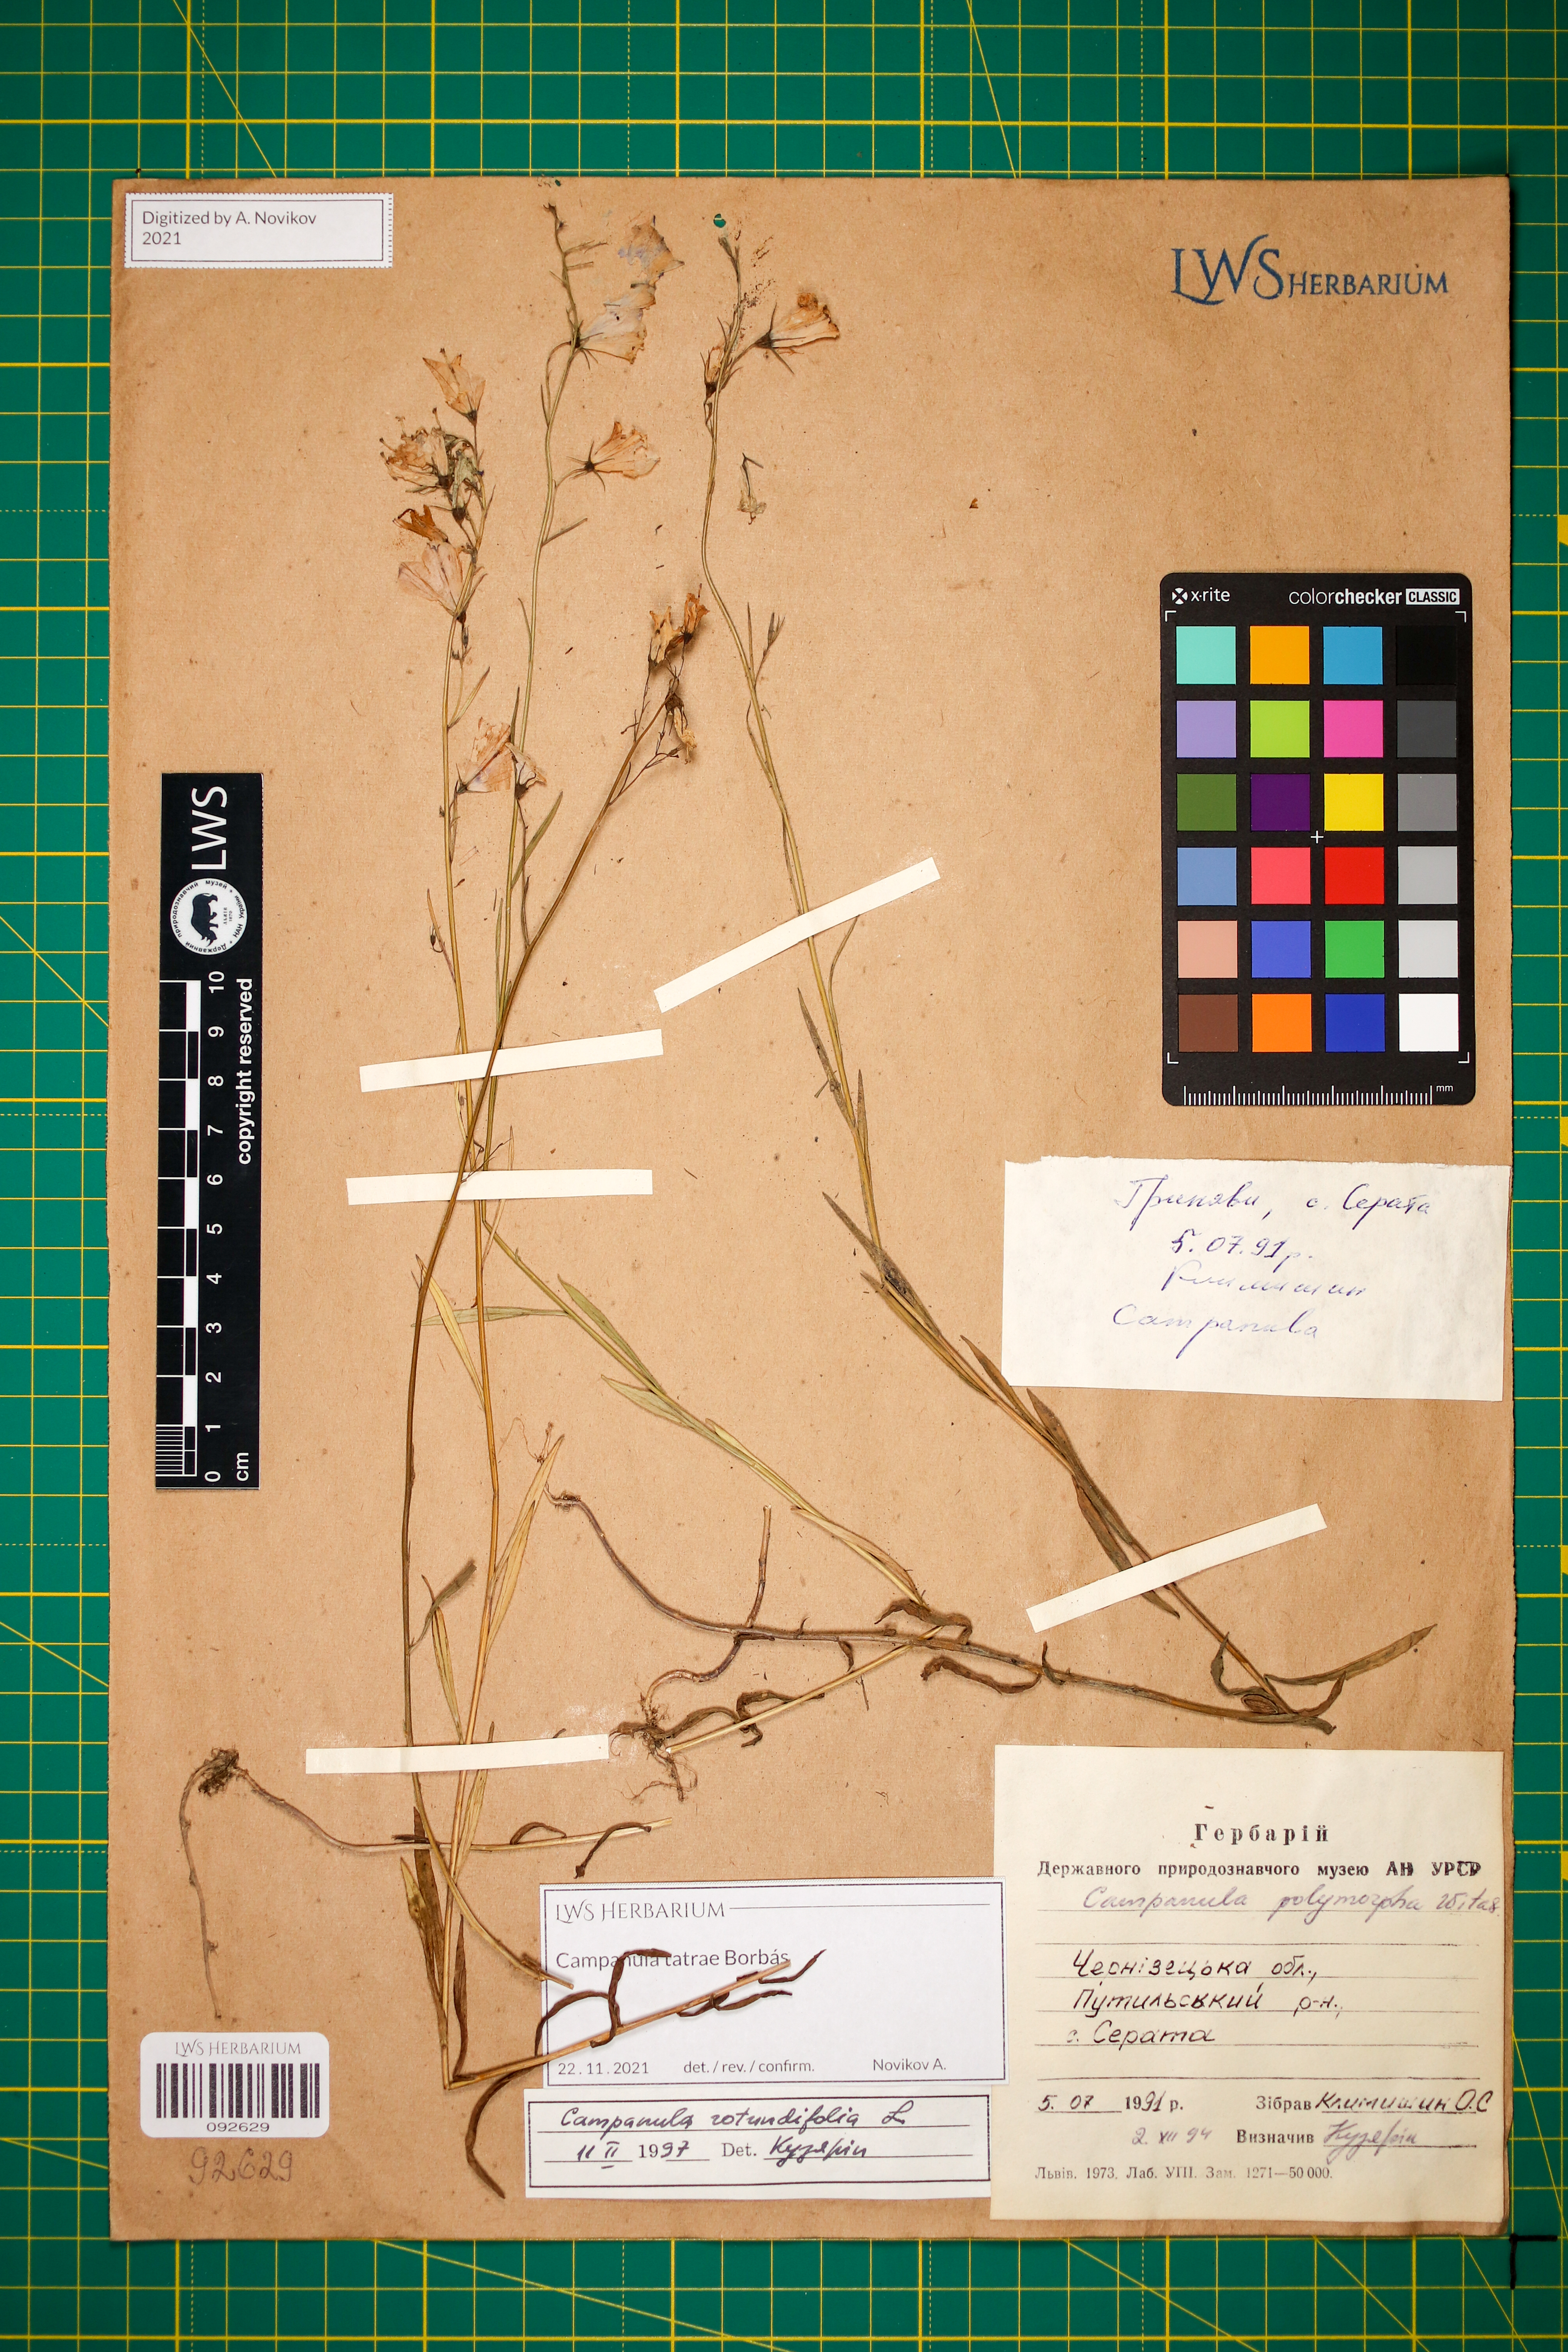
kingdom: Plantae
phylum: Tracheophyta
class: Magnoliopsida
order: Asterales
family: Campanulaceae
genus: Campanula
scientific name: Campanula tatrae
